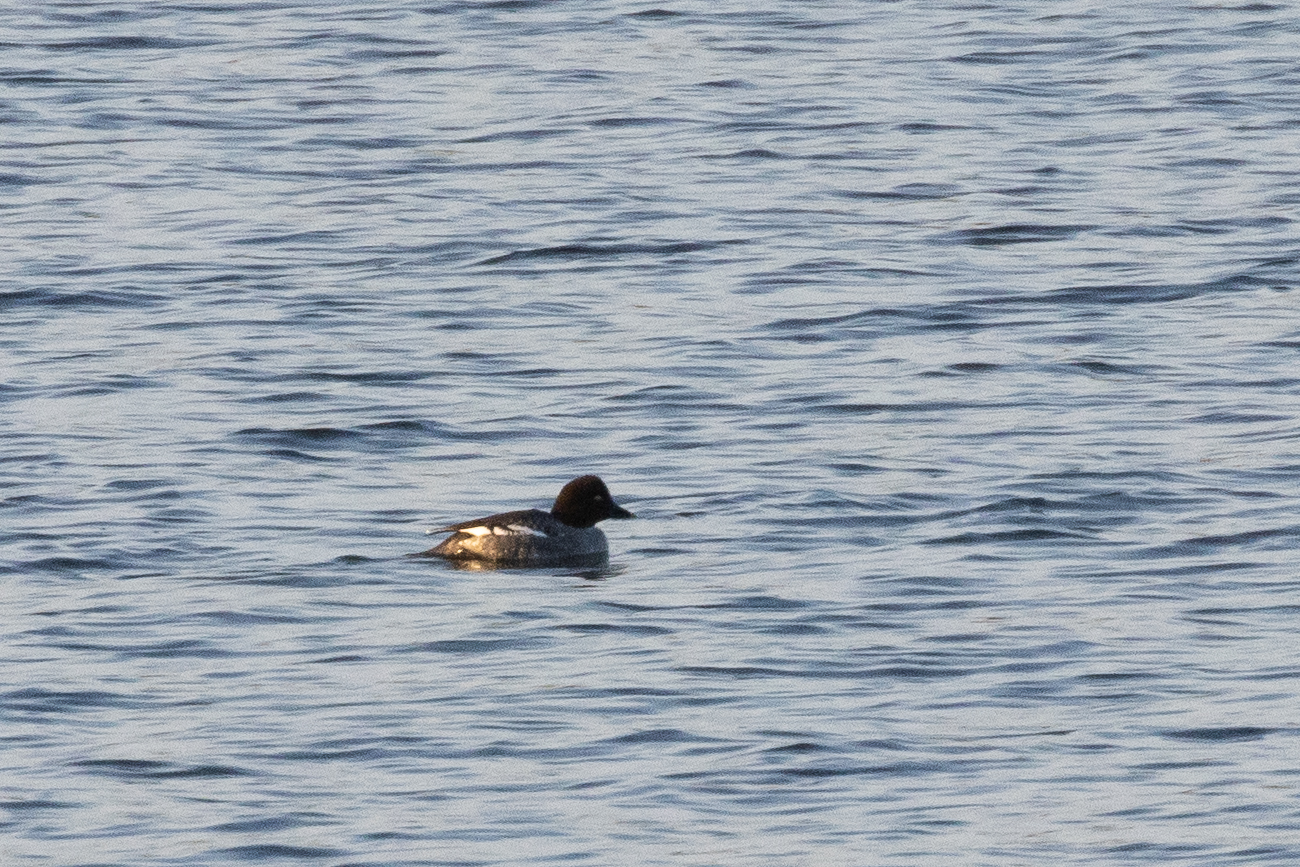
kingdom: Animalia
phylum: Chordata
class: Aves
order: Anseriformes
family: Anatidae
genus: Bucephala
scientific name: Bucephala clangula
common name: Hvinand
